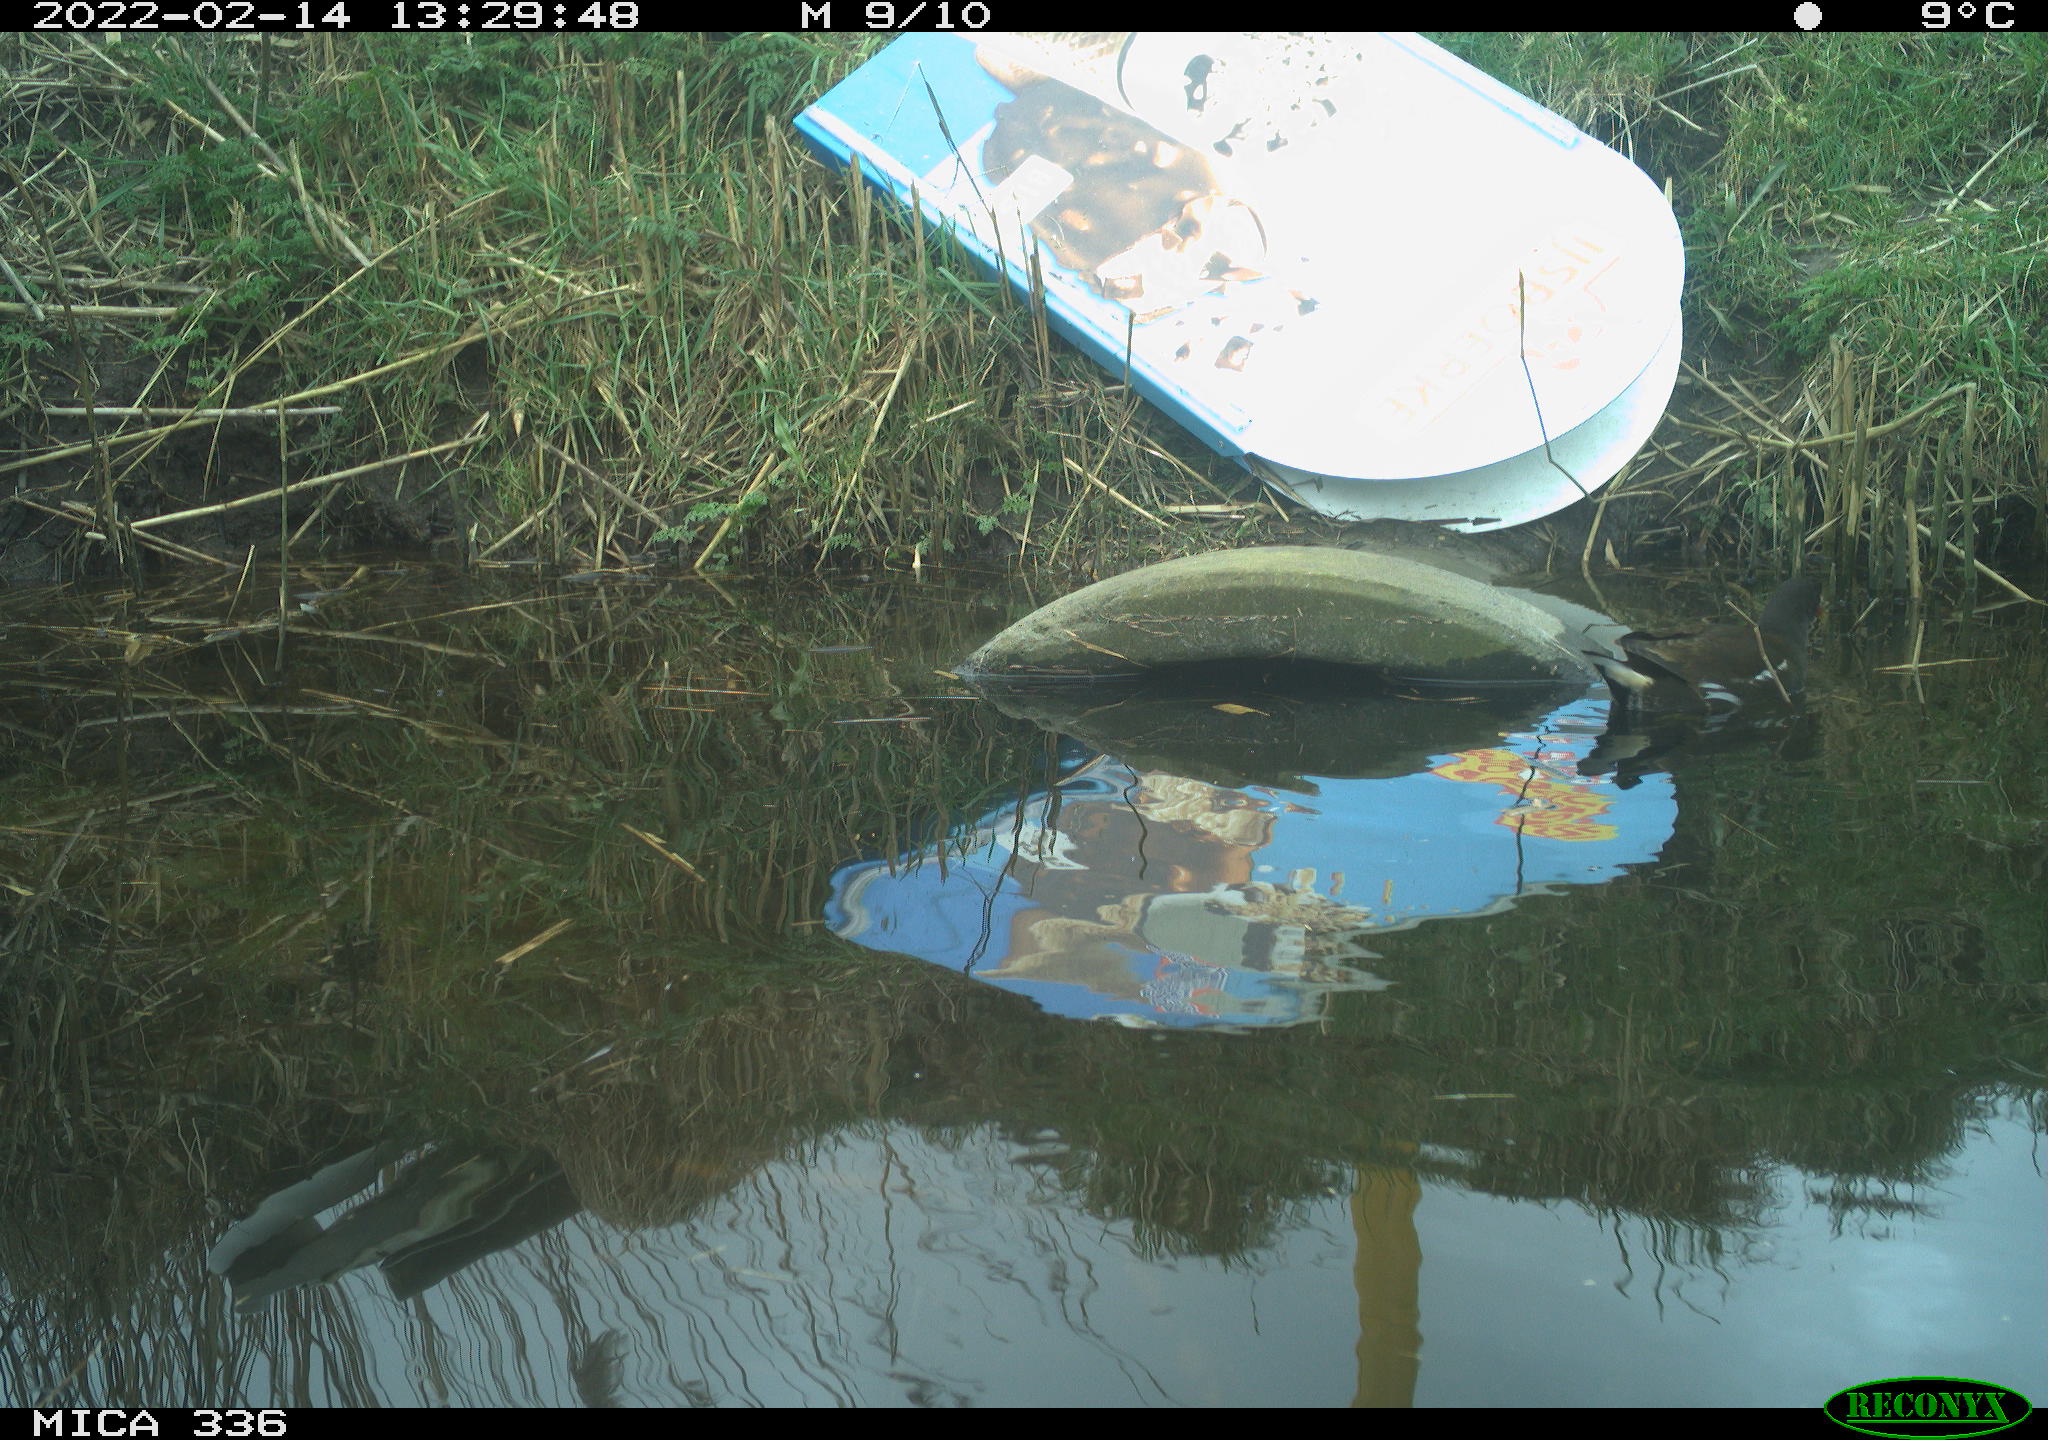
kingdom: Animalia
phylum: Chordata
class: Aves
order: Gruiformes
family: Rallidae
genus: Gallinula
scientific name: Gallinula chloropus
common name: Common moorhen
